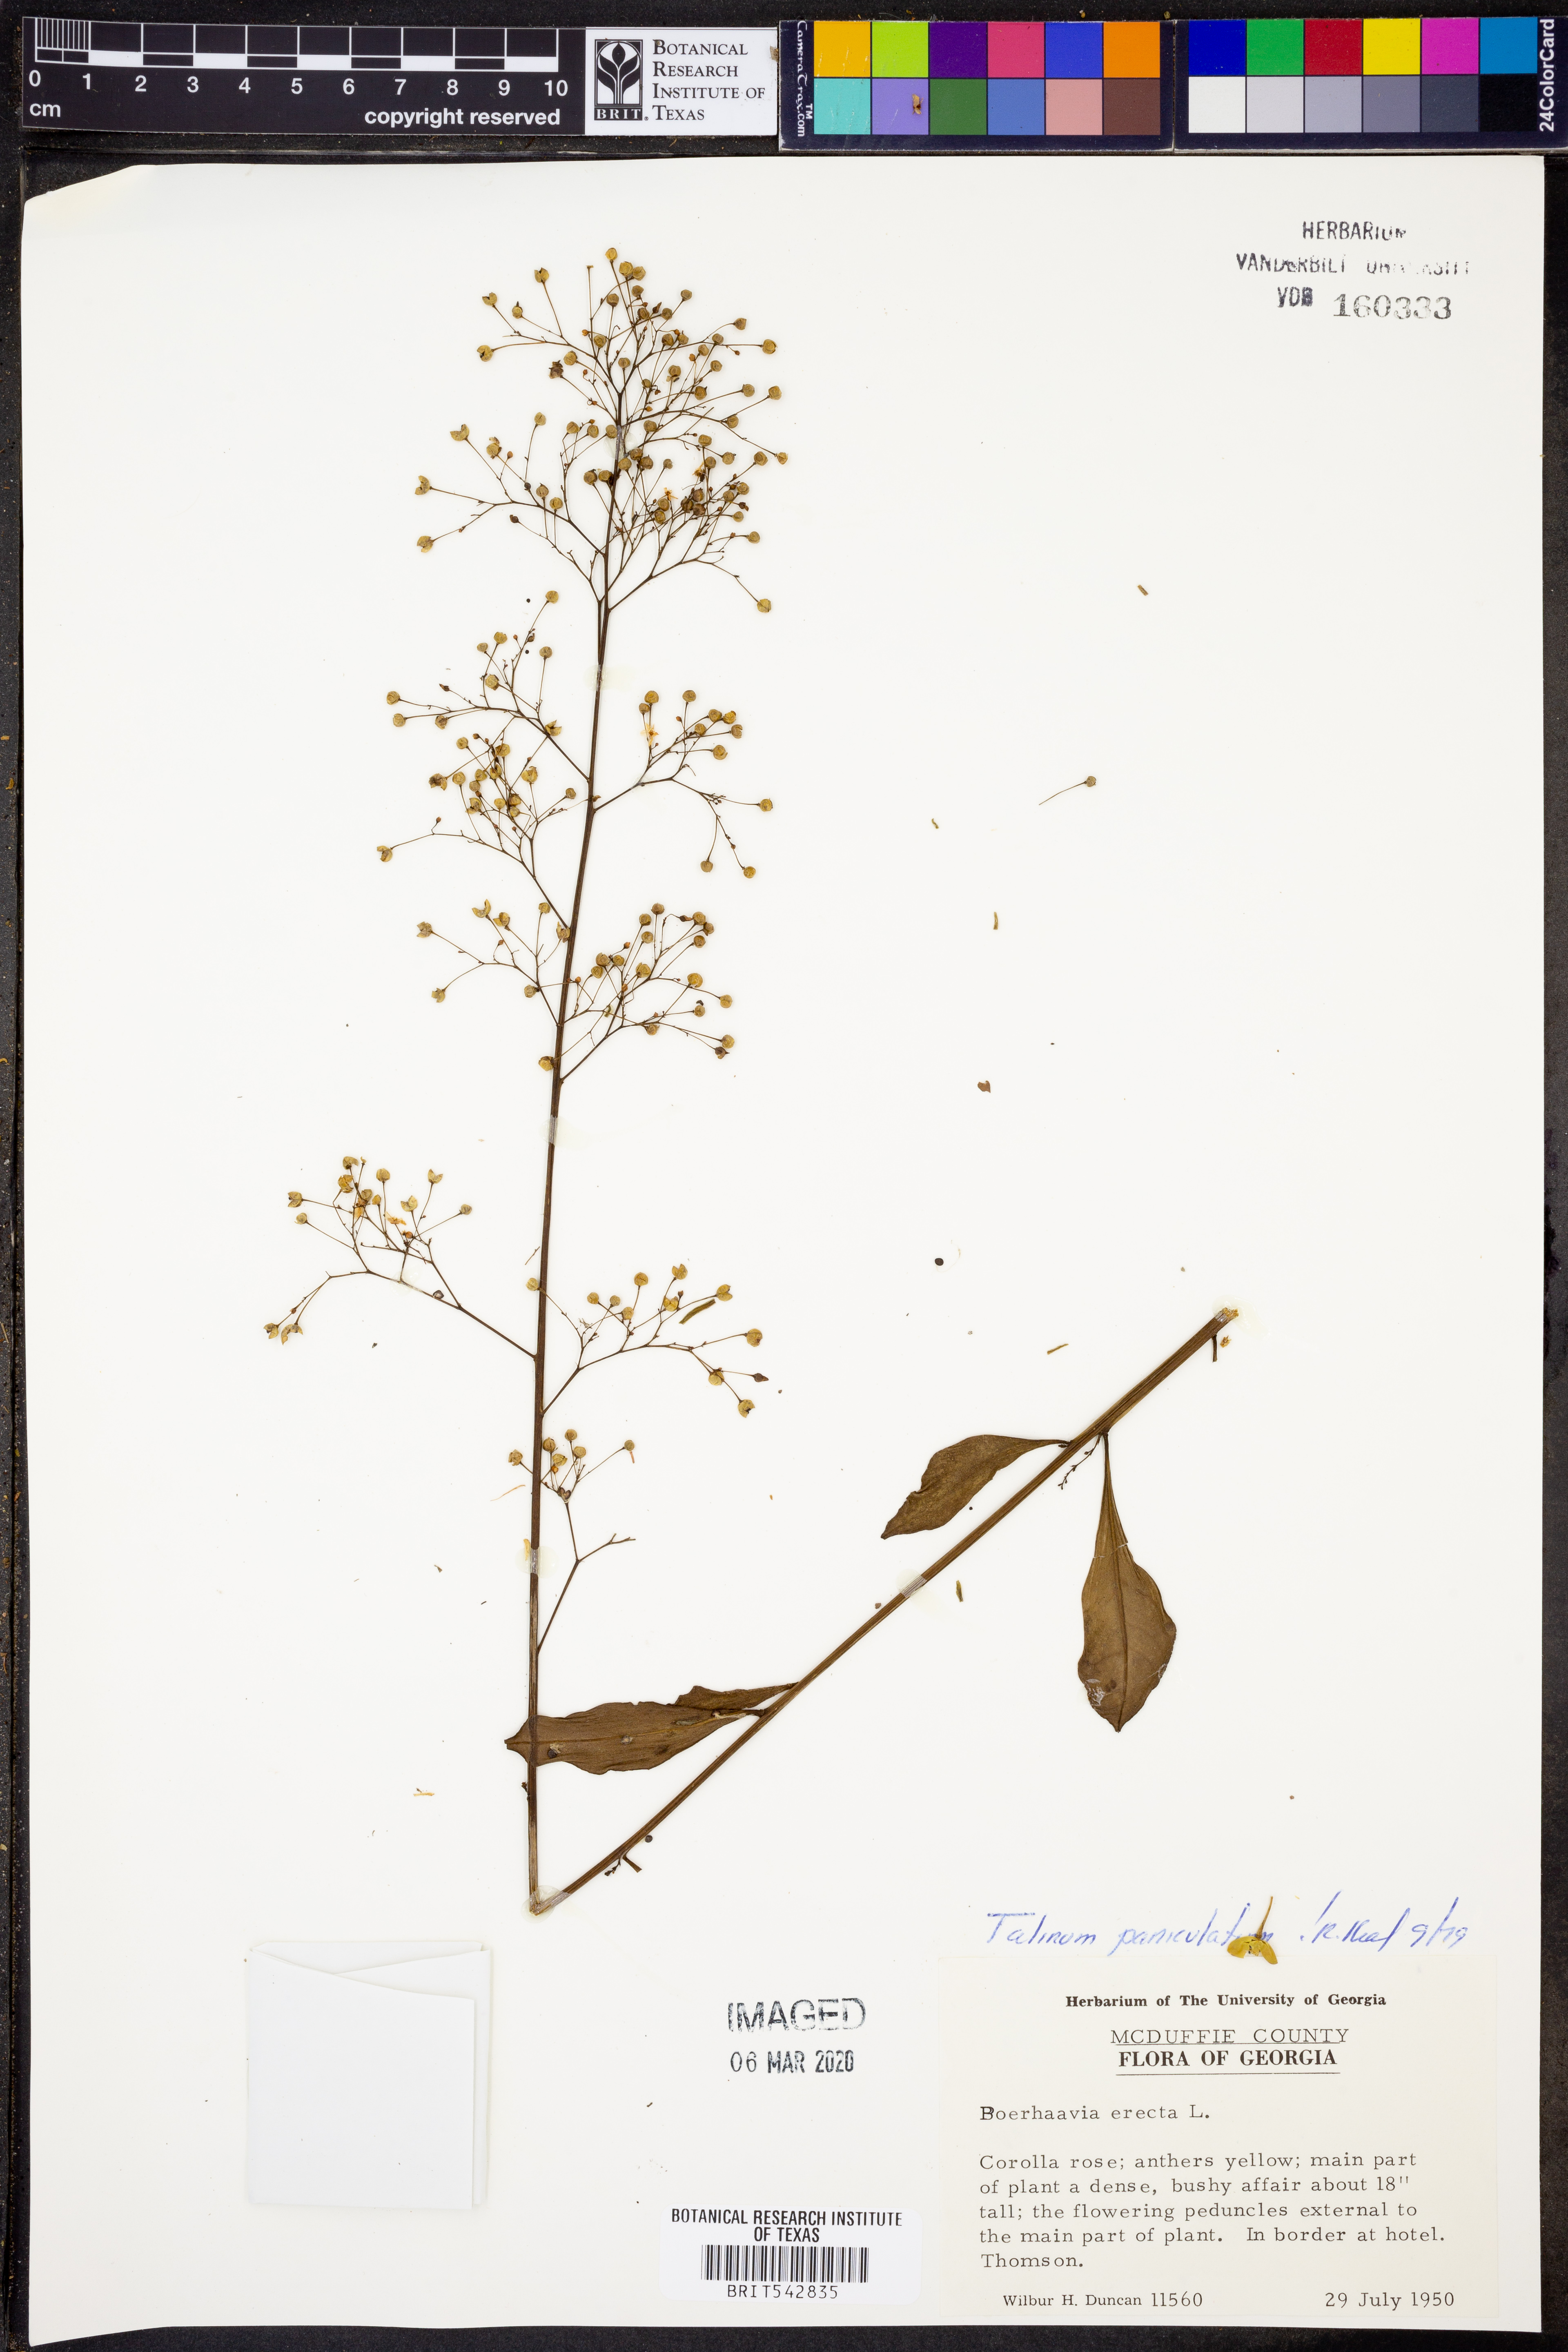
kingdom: Plantae
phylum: Tracheophyta
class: Magnoliopsida
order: Caryophyllales
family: Talinaceae
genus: Talinum
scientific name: Talinum paniculatum
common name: Jewels of opar
